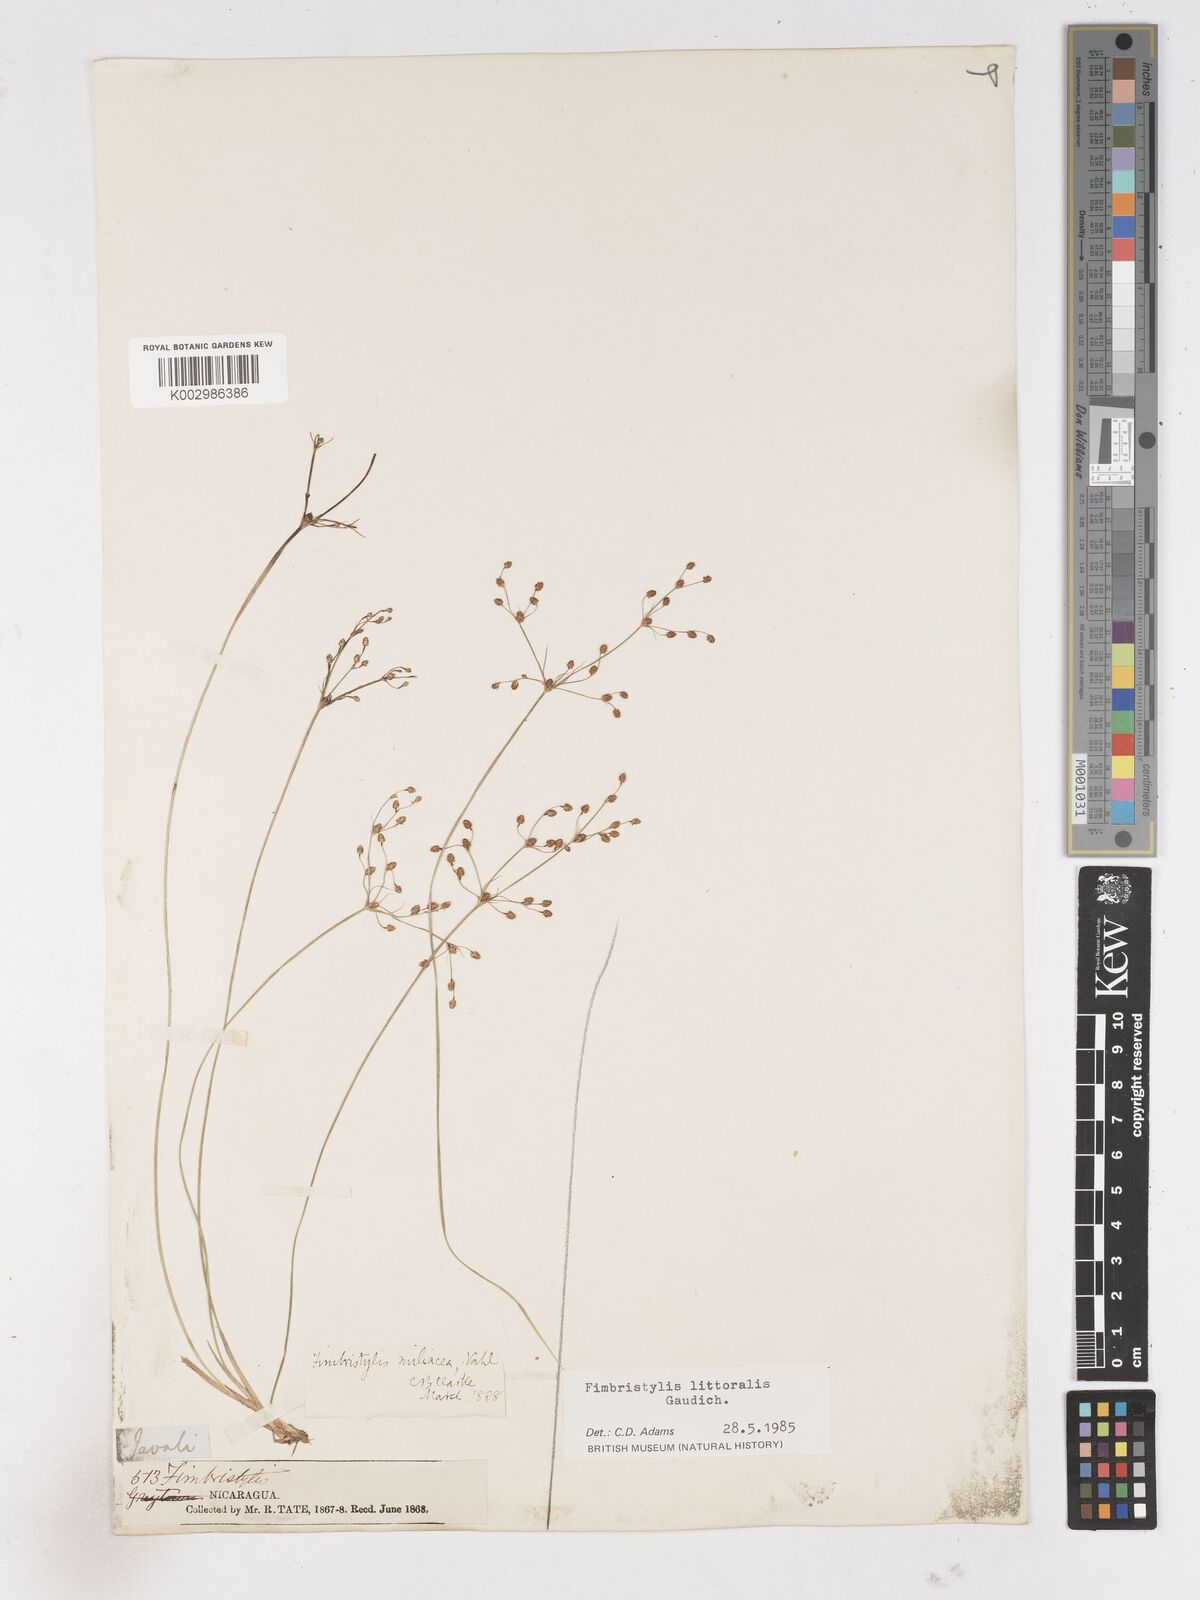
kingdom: Plantae
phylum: Tracheophyta
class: Liliopsida
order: Poales
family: Cyperaceae
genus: Fimbristylis
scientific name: Fimbristylis littoralis
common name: Fimbry
